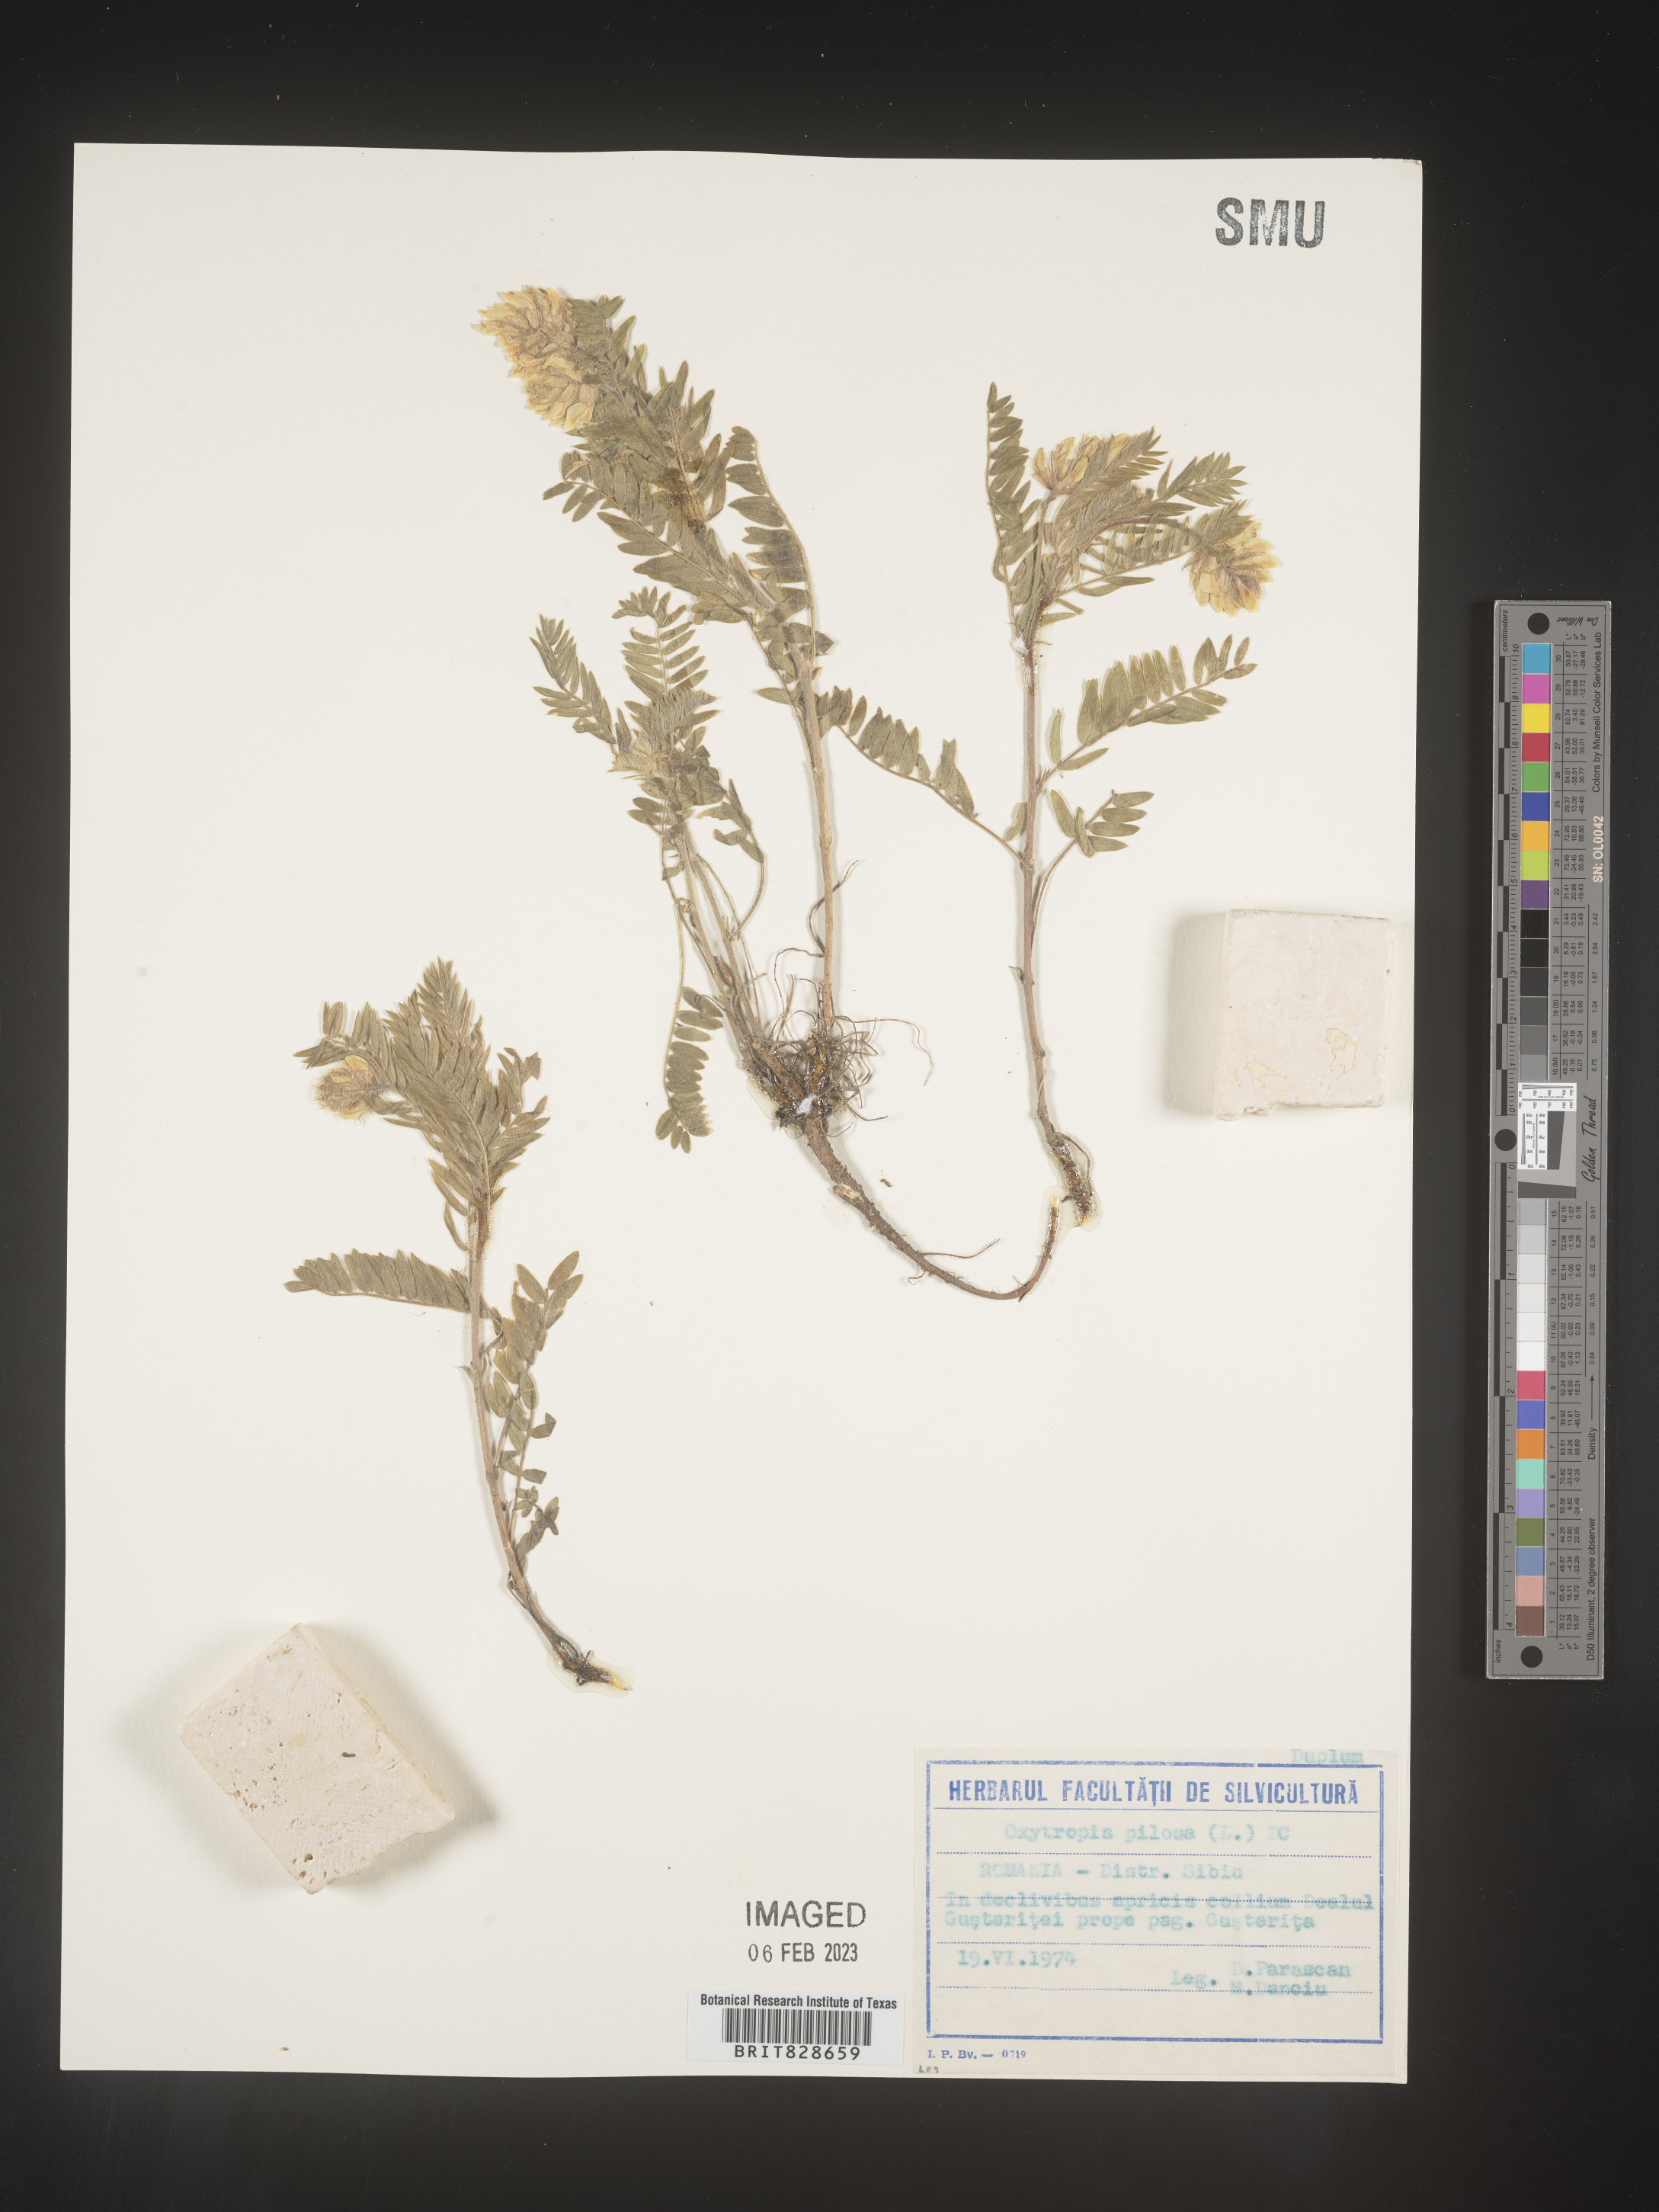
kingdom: Plantae
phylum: Tracheophyta
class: Magnoliopsida
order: Fabales
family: Fabaceae
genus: Oxytropis
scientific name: Oxytropis
